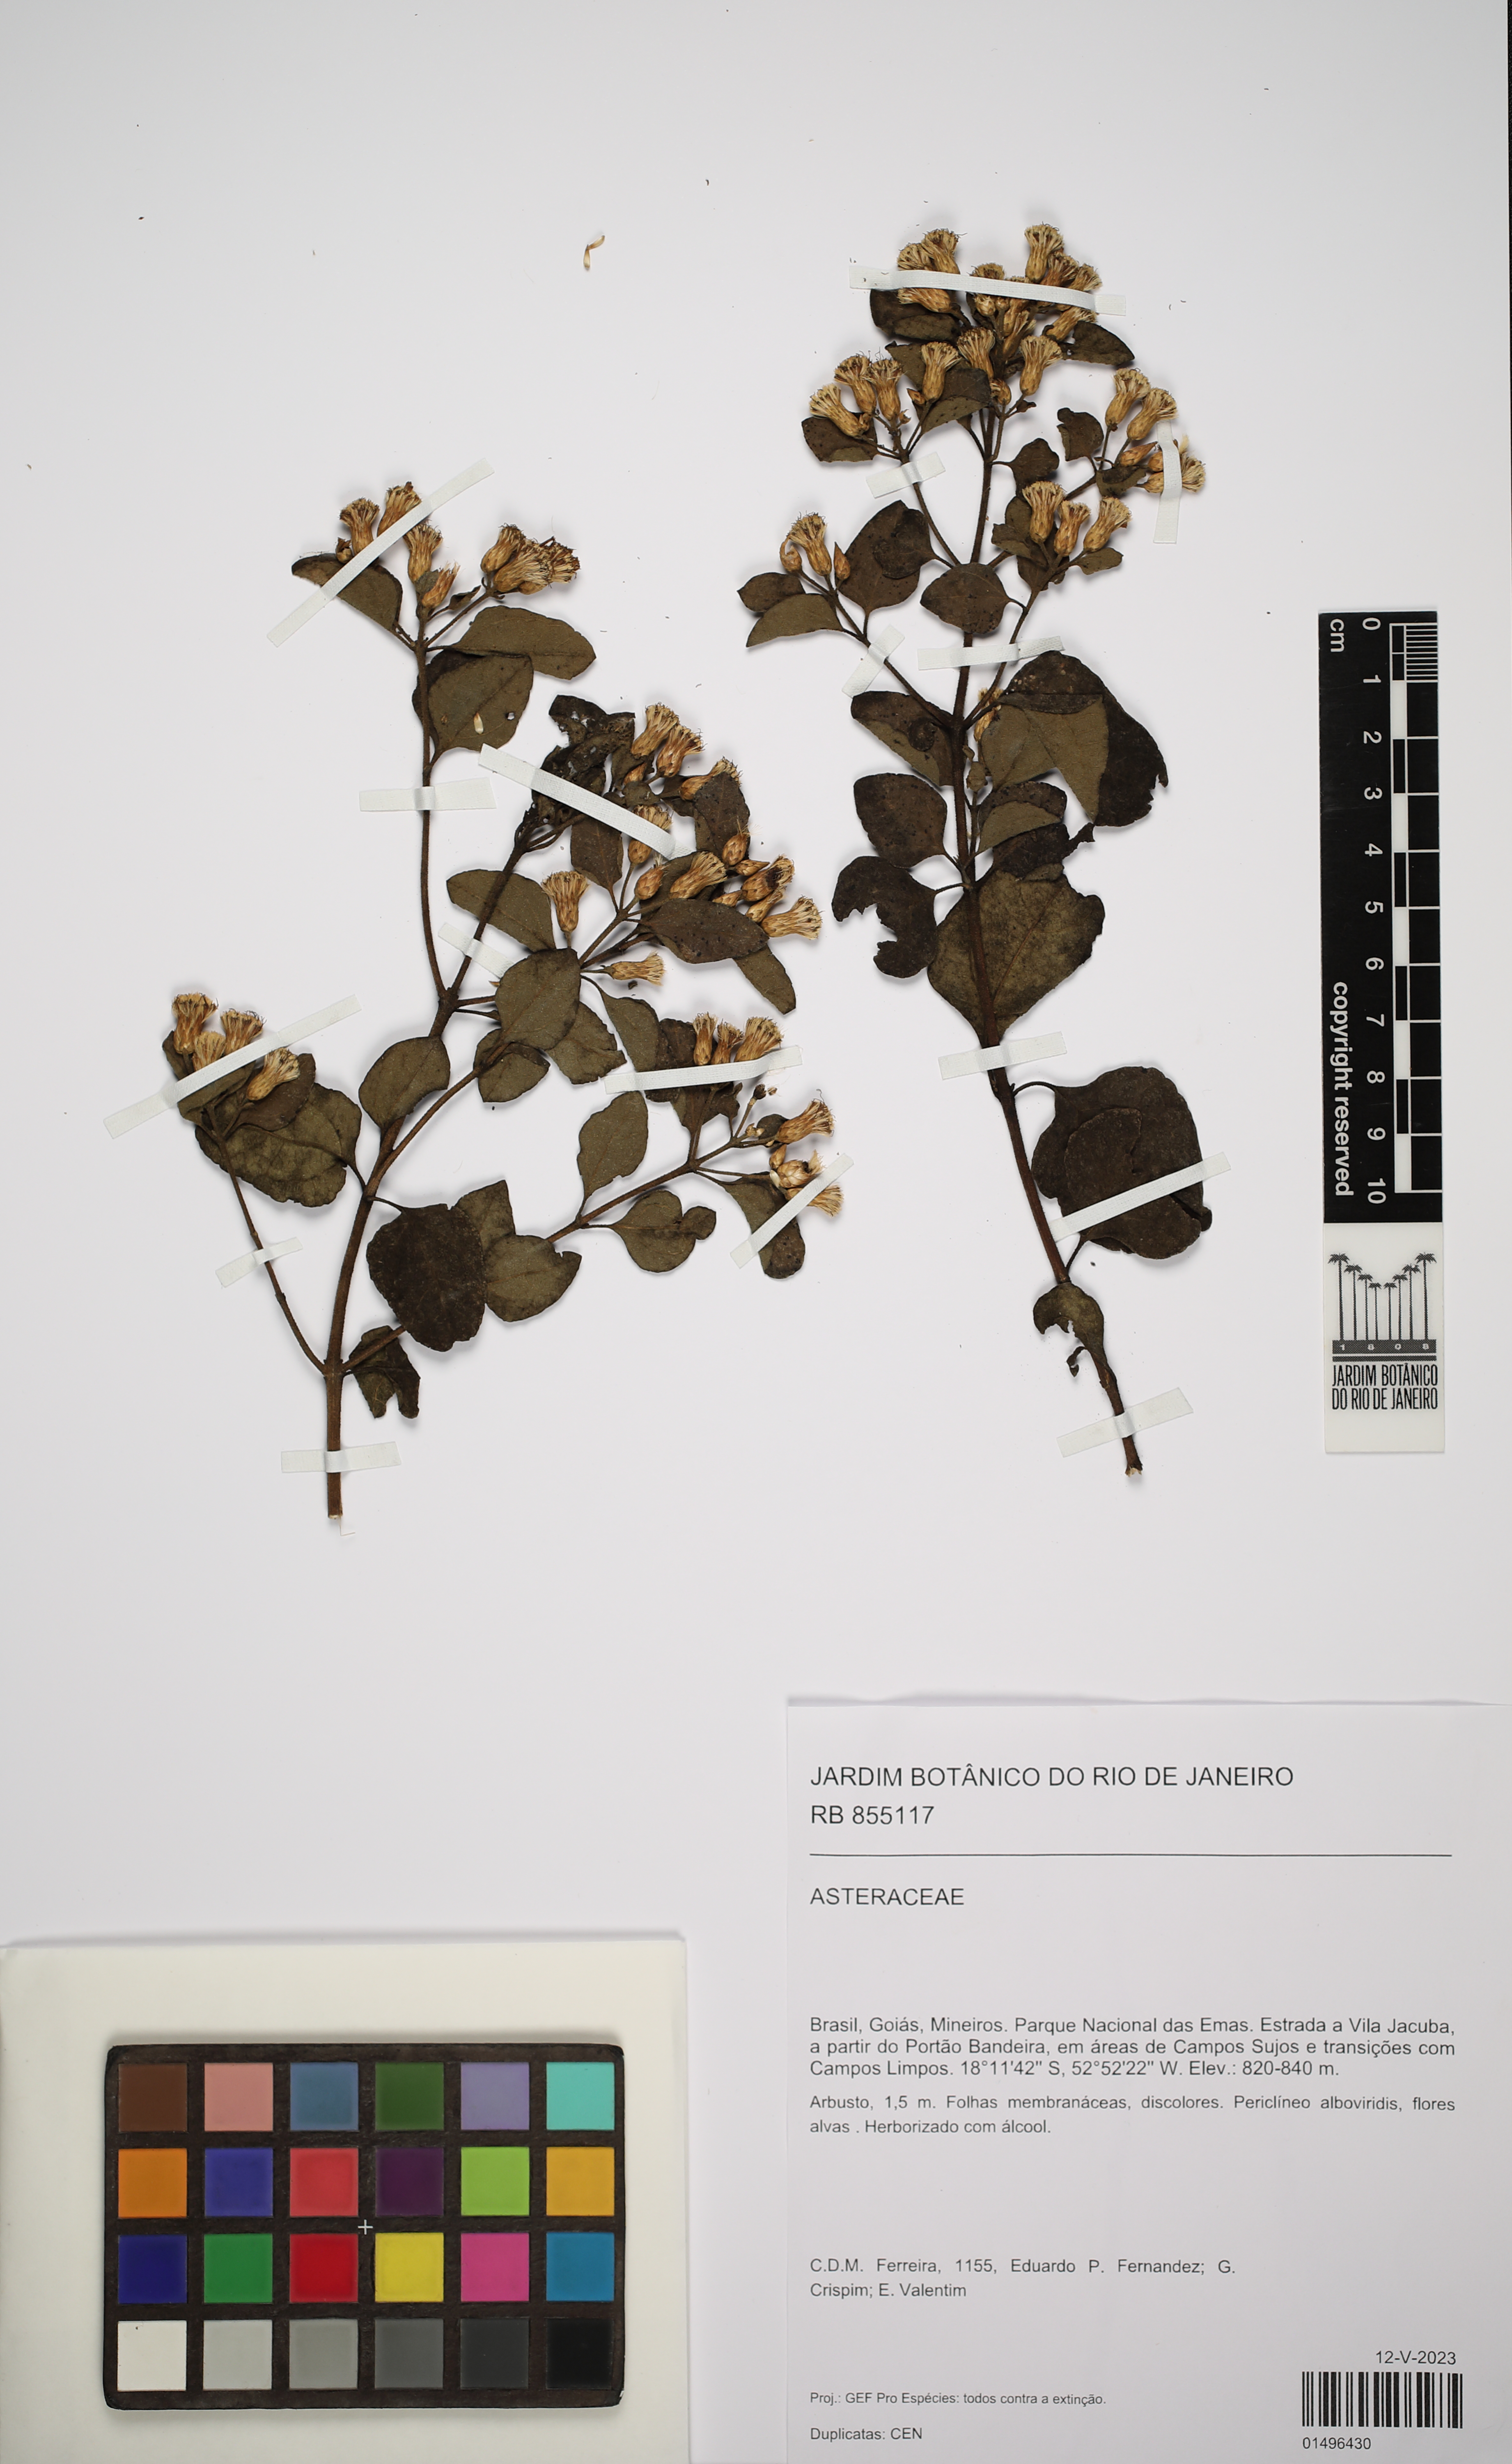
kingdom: Plantae
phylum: Tracheophyta
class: Magnoliopsida
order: Asterales
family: Asteraceae
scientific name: Asteraceae
